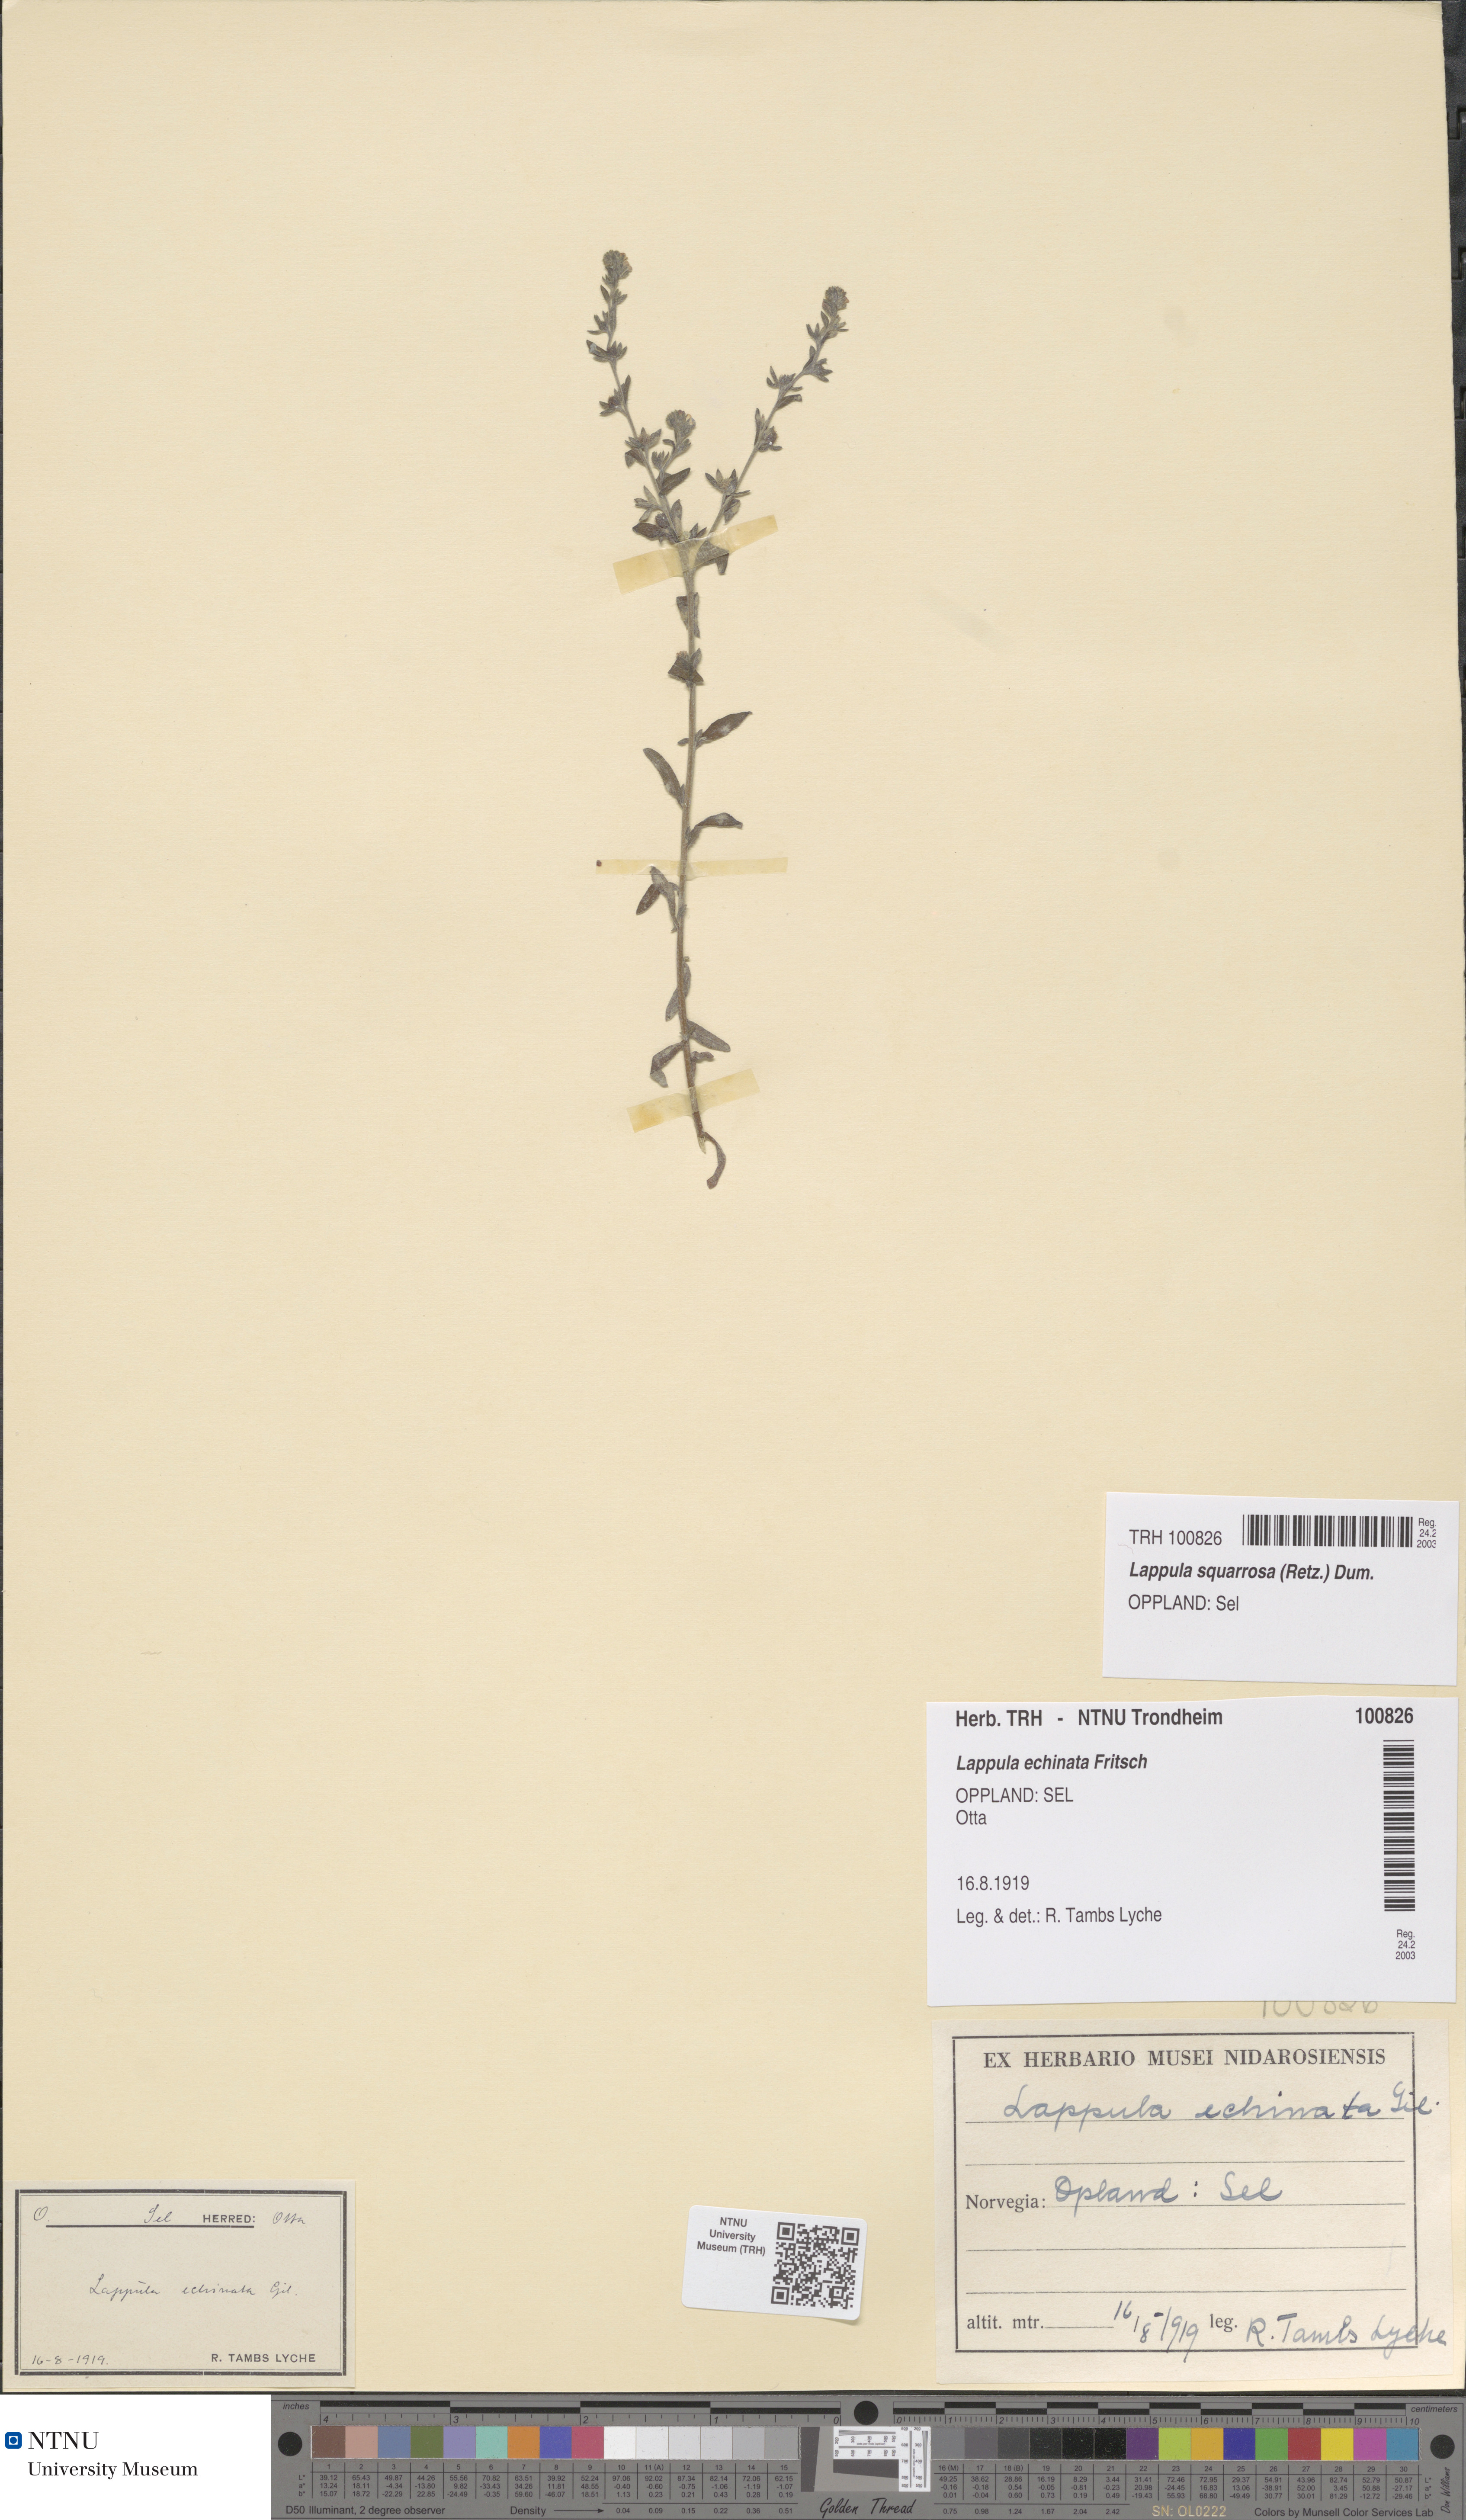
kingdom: Plantae
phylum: Tracheophyta
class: Magnoliopsida
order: Boraginales
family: Boraginaceae
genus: Lappula
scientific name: Lappula squarrosa
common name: European stickseed
